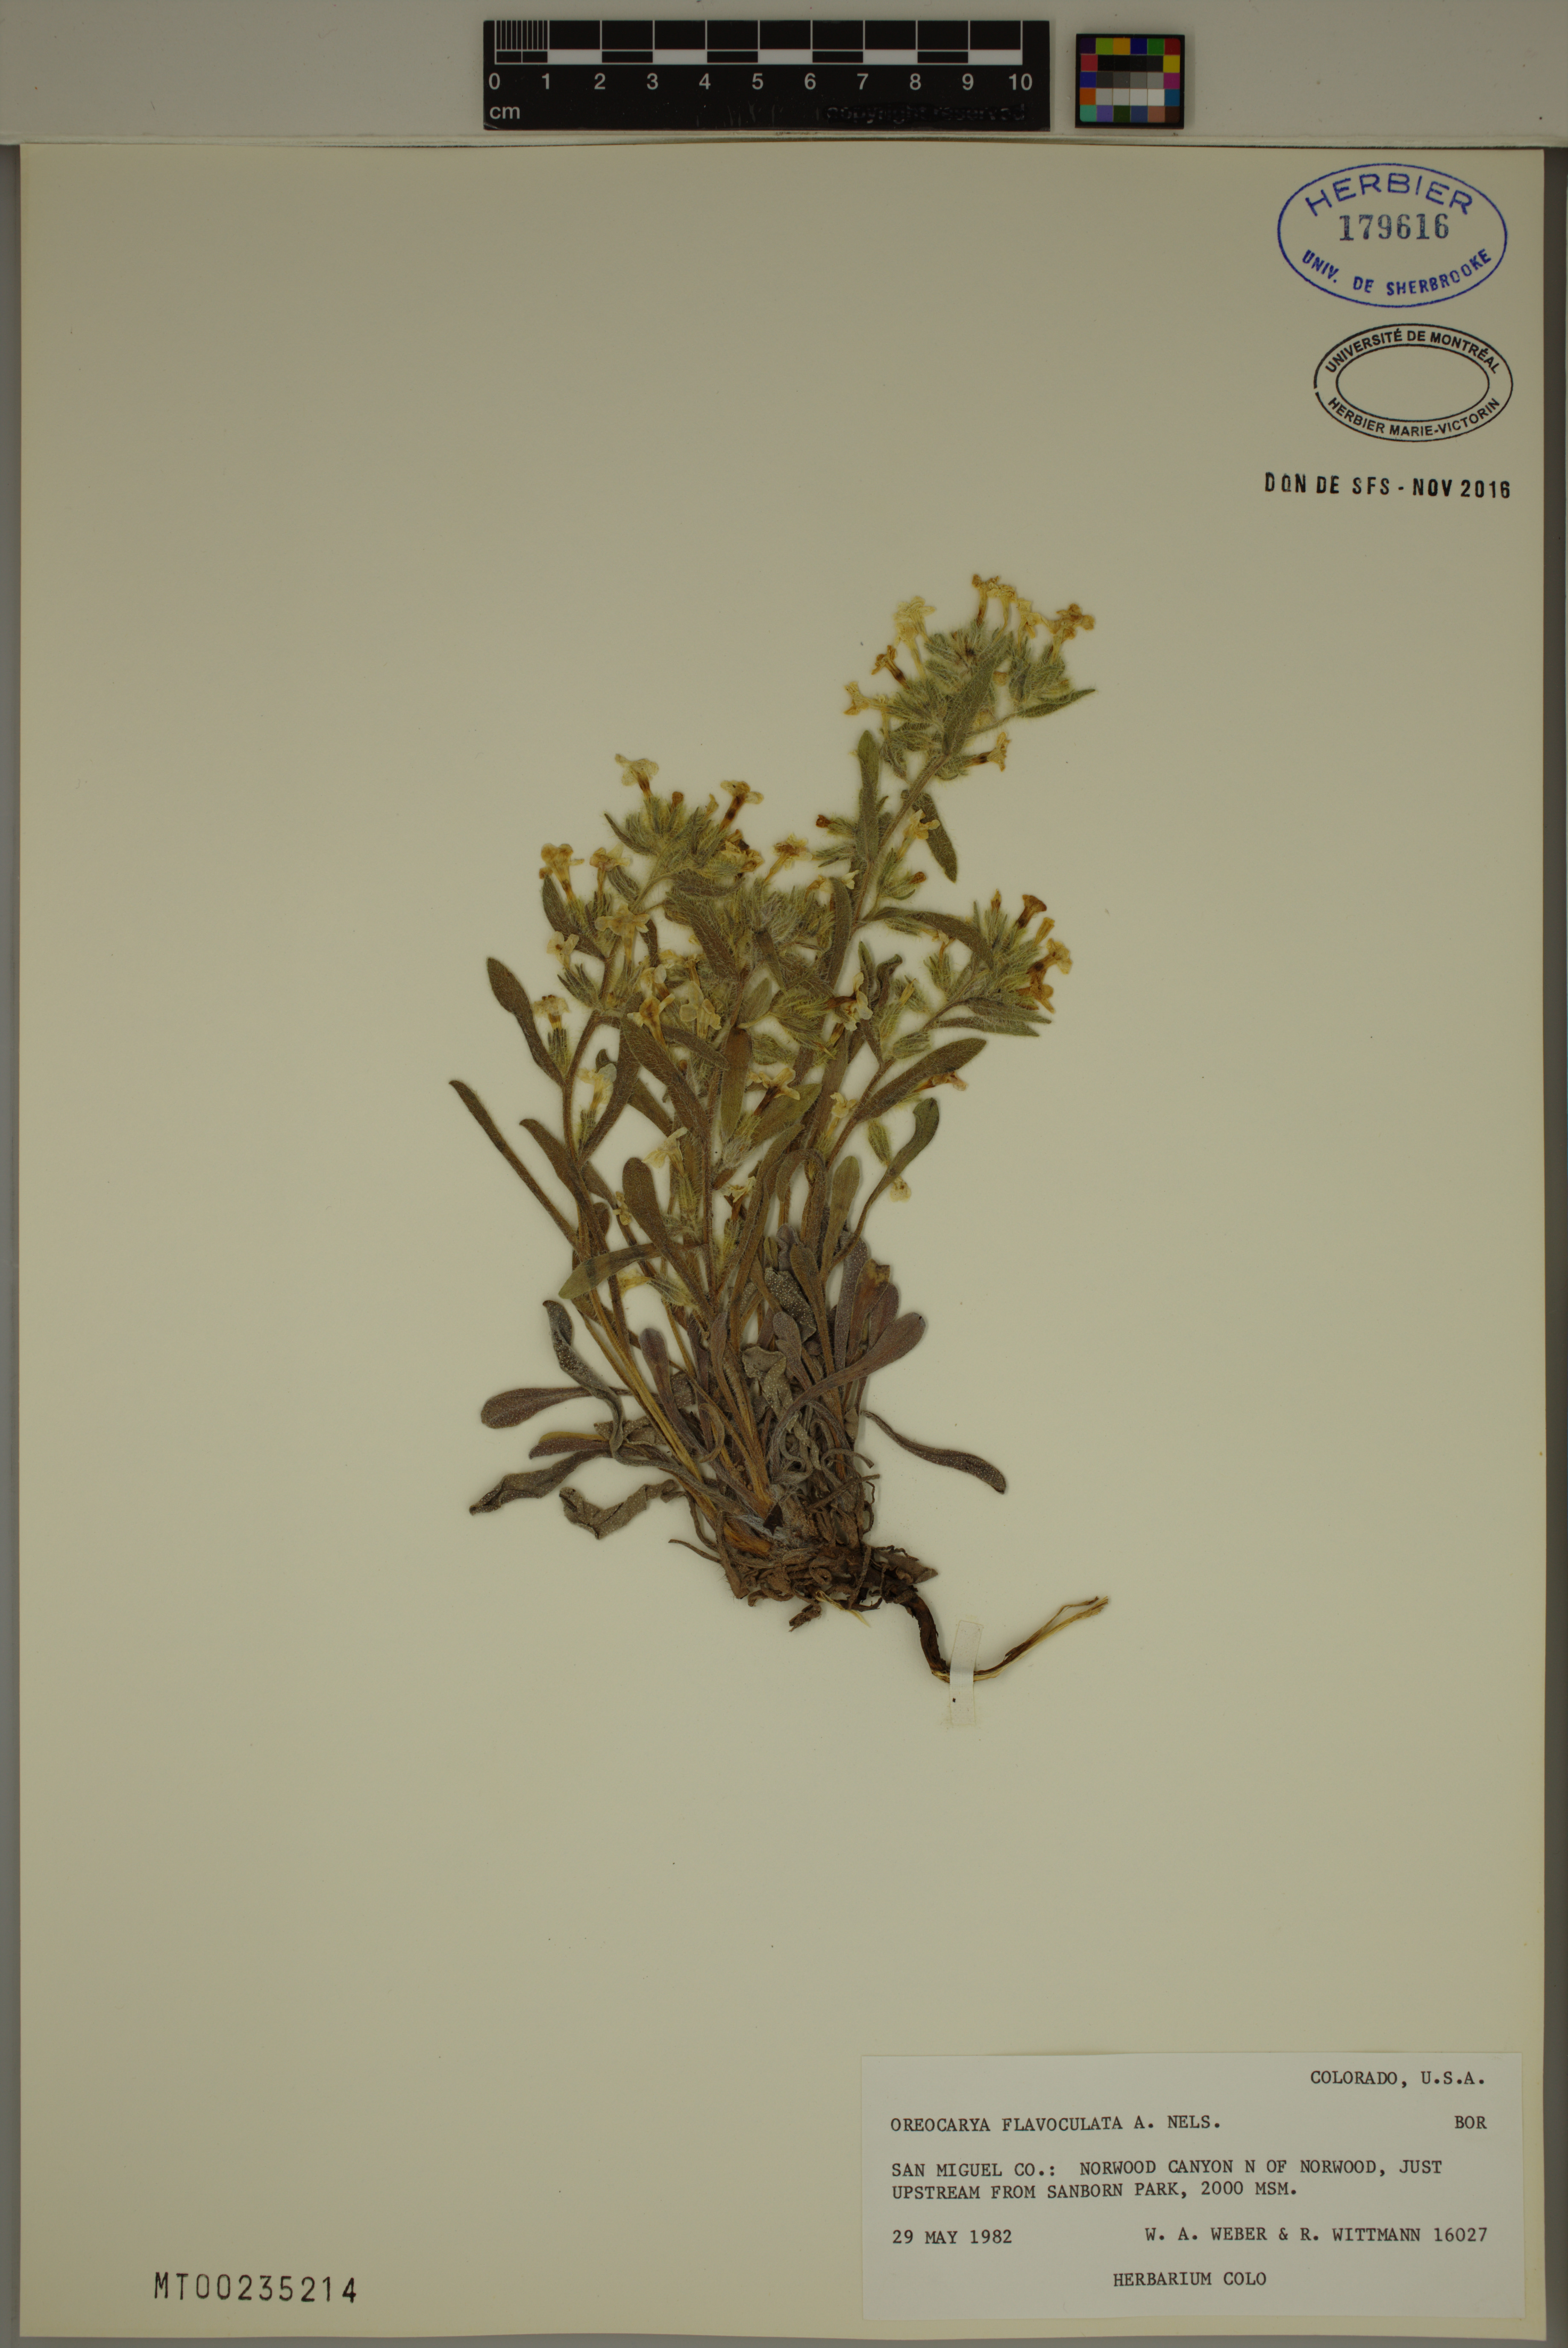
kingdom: Plantae
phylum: Tracheophyta
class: Magnoliopsida
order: Boraginales
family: Boraginaceae
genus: Oreocarya
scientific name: Oreocarya flavoculata
